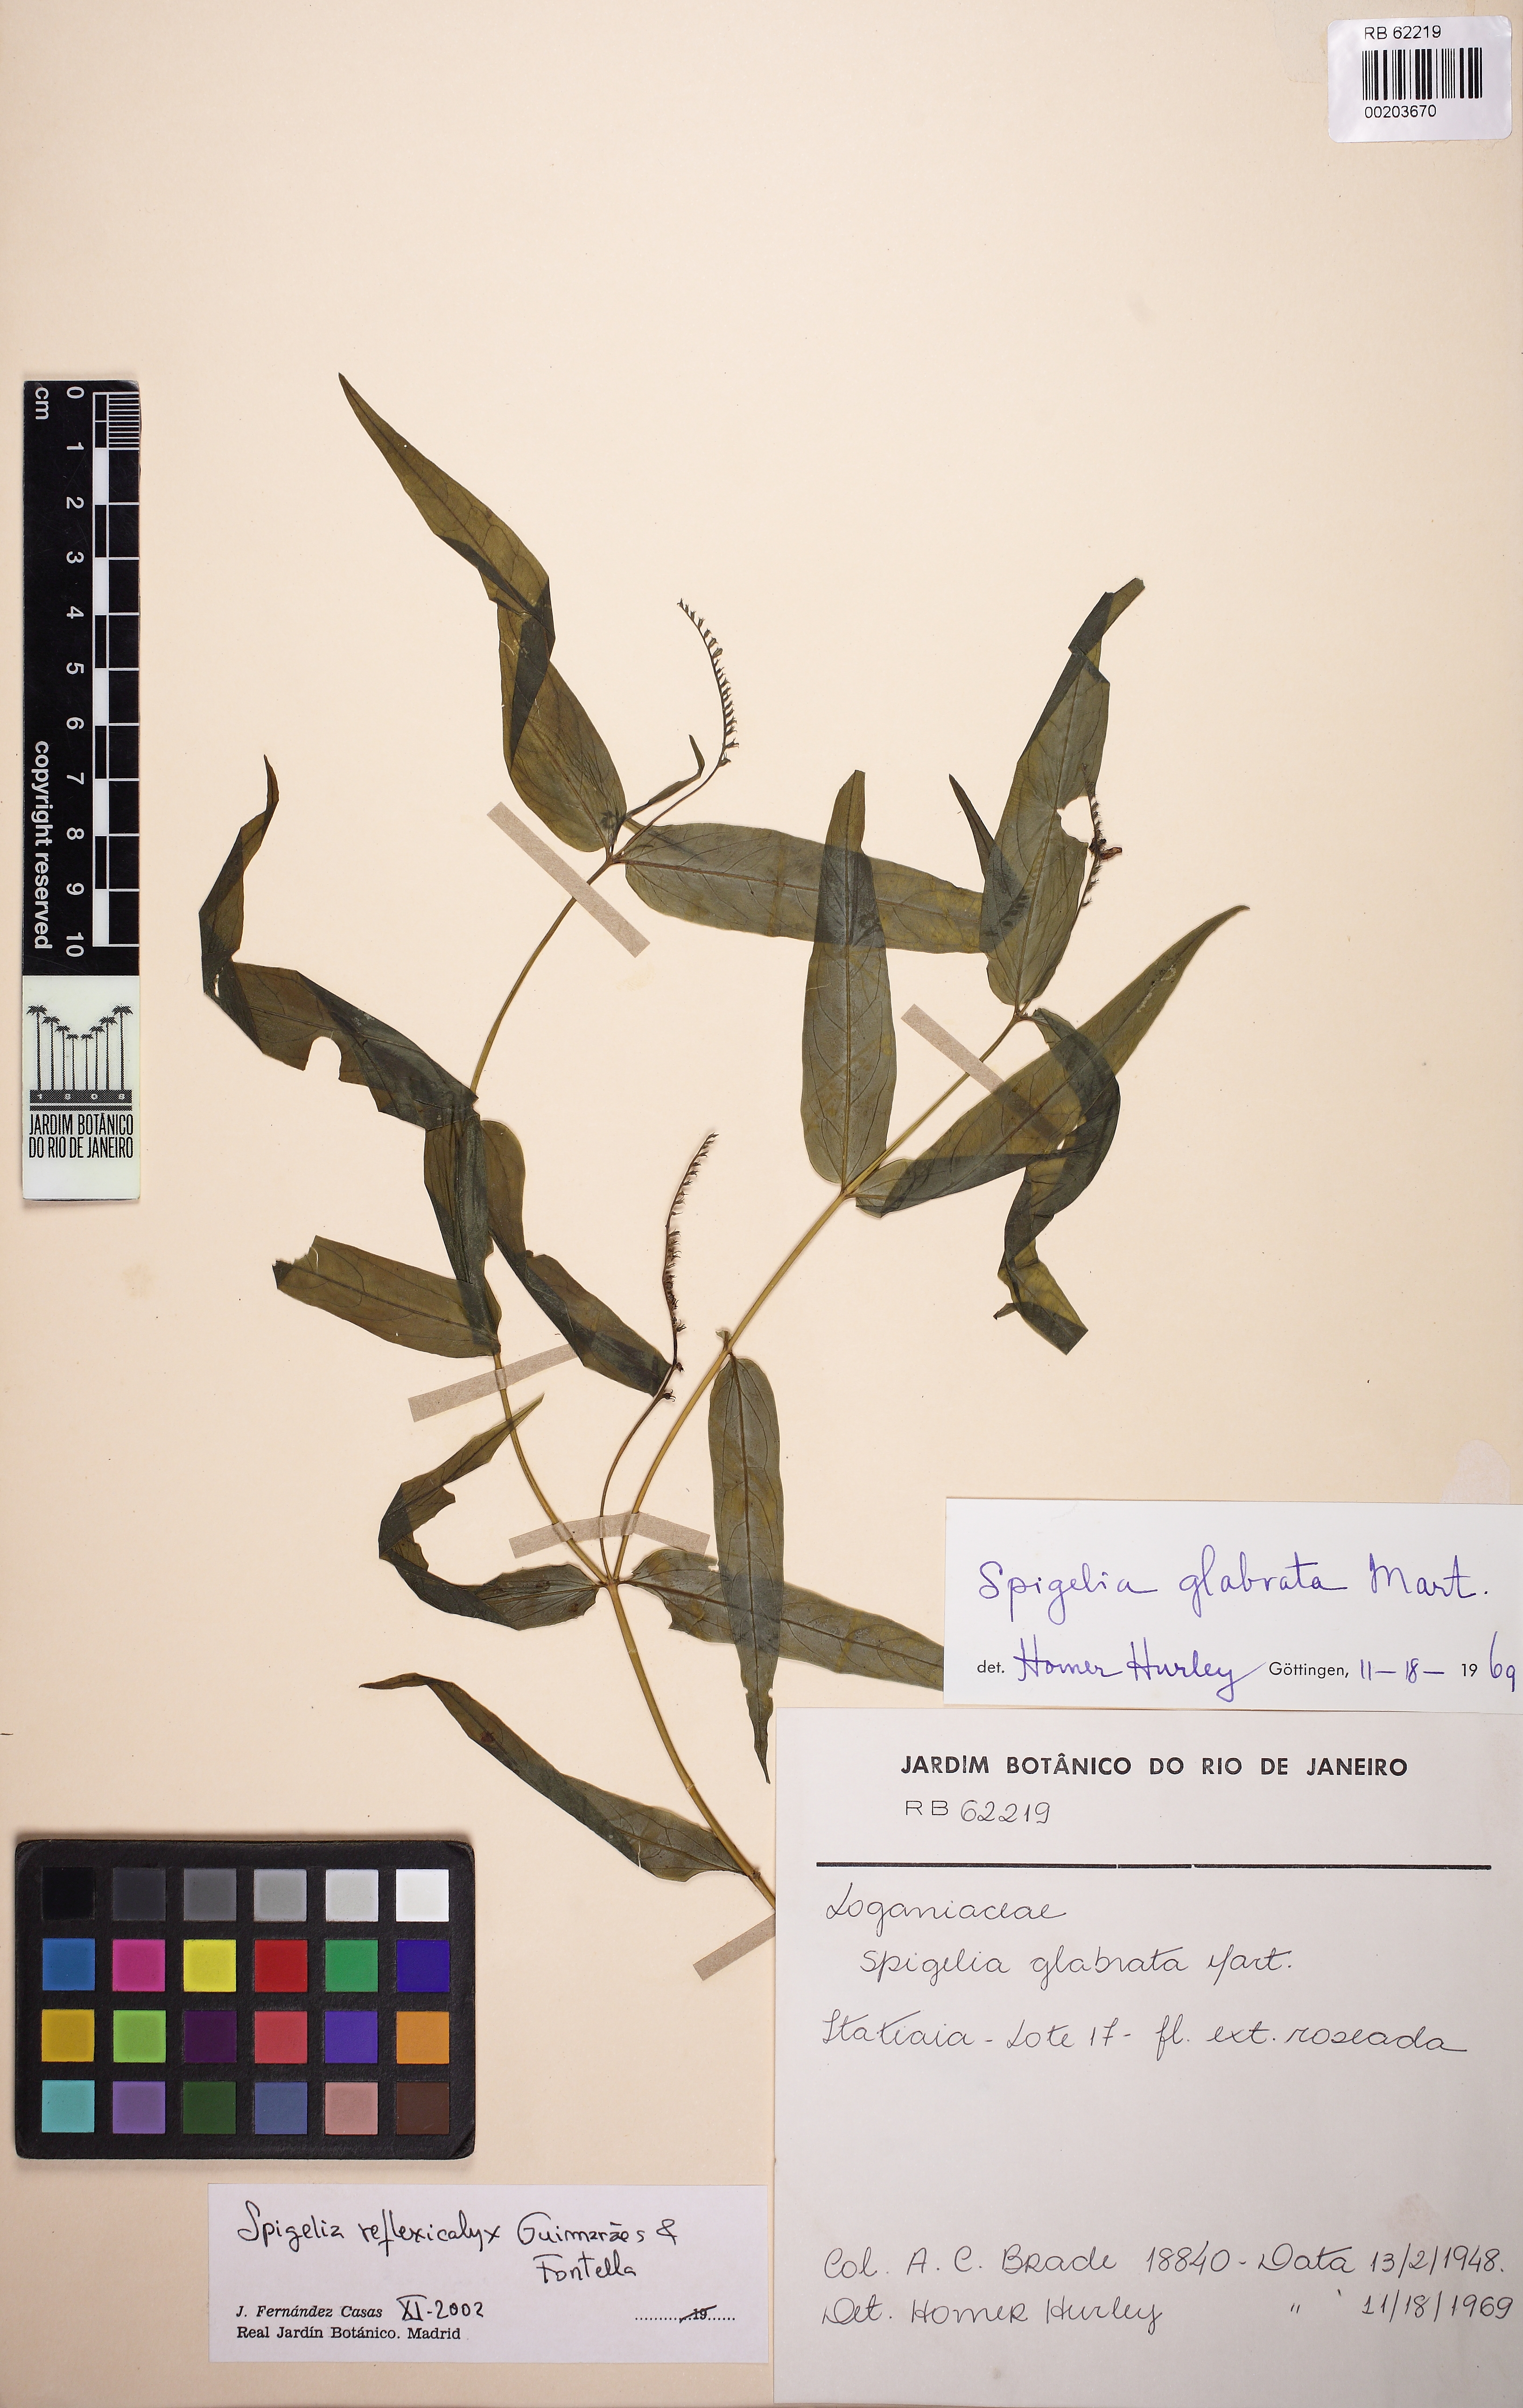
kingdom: Plantae
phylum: Tracheophyta
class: Magnoliopsida
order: Gentianales
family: Loganiaceae
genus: Spigelia
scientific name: Spigelia amplexicaulis
